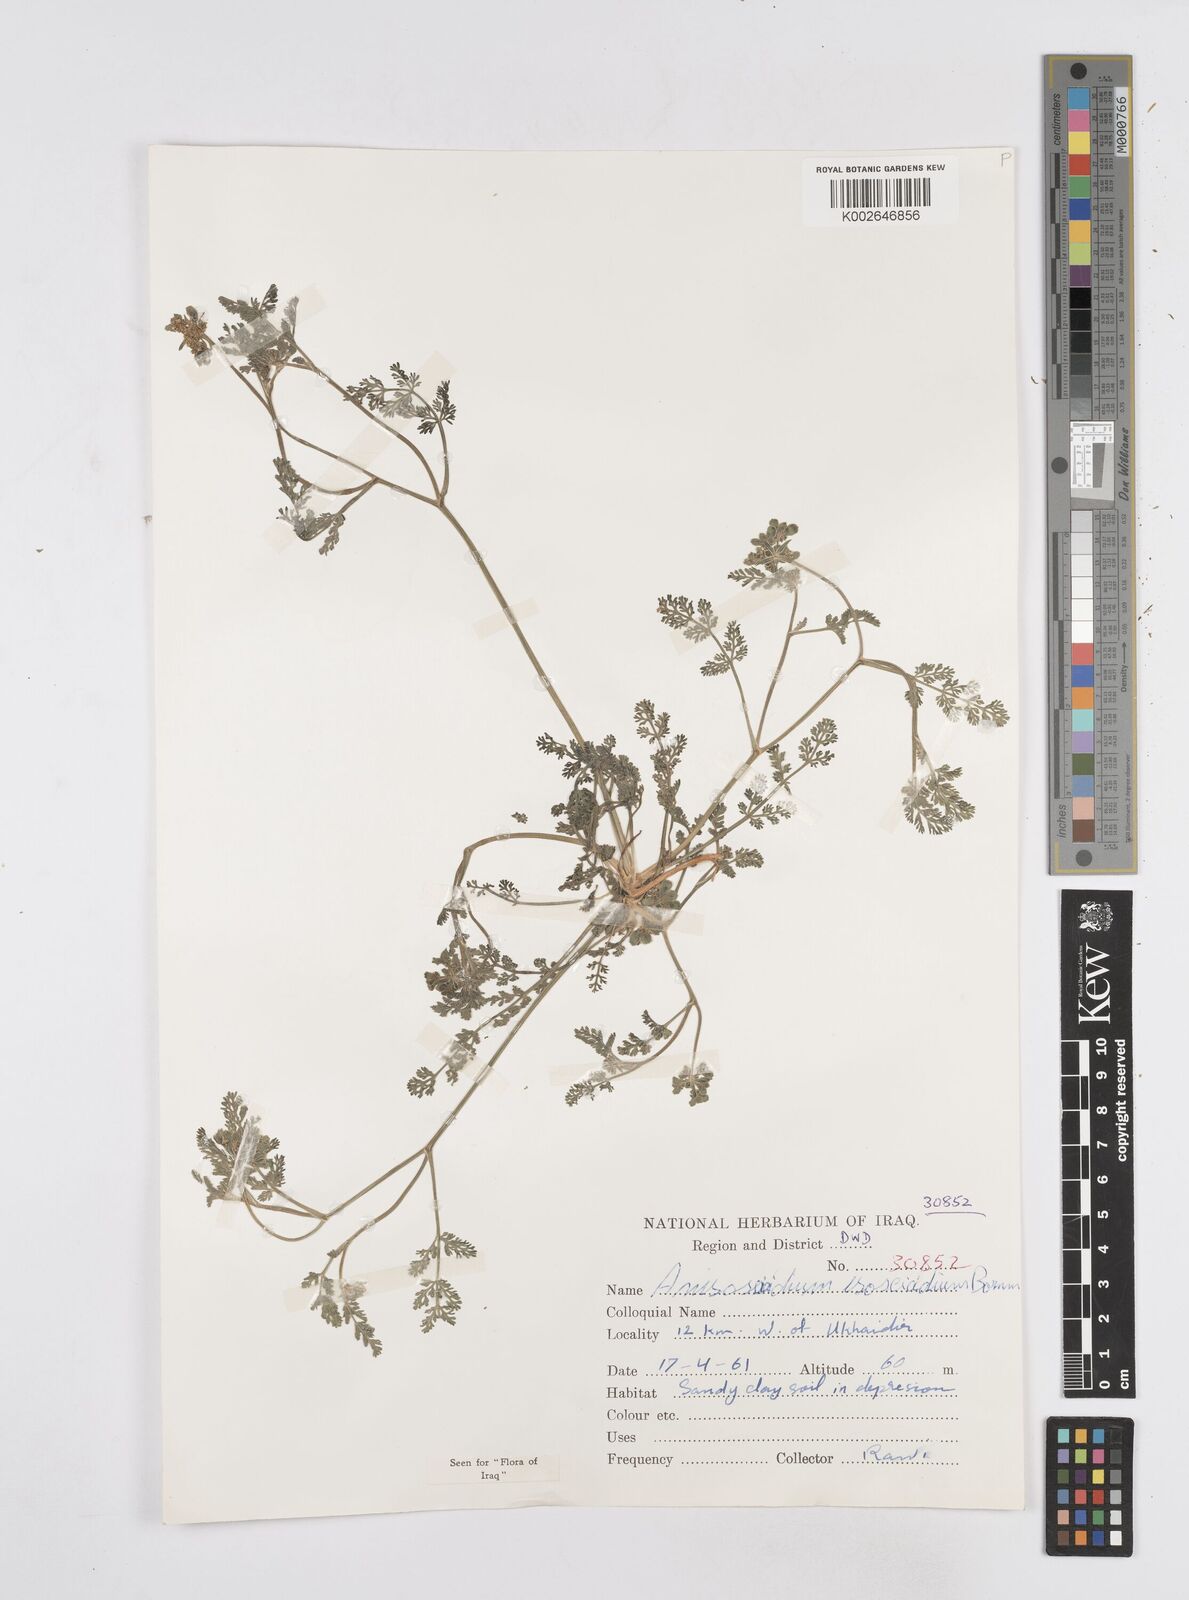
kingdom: Plantae
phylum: Tracheophyta
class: Magnoliopsida
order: Apiales
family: Apiaceae
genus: Anisosciadium
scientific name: Anisosciadium isosciadium
